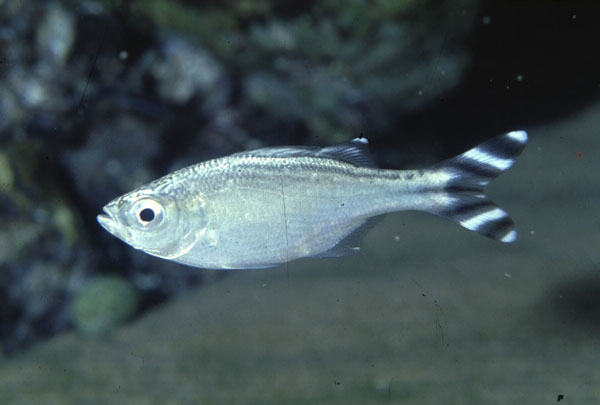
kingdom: Animalia
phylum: Chordata
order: Perciformes
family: Kuhliidae
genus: Kuhlia
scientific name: Kuhlia mugil
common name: Barred flagtail
